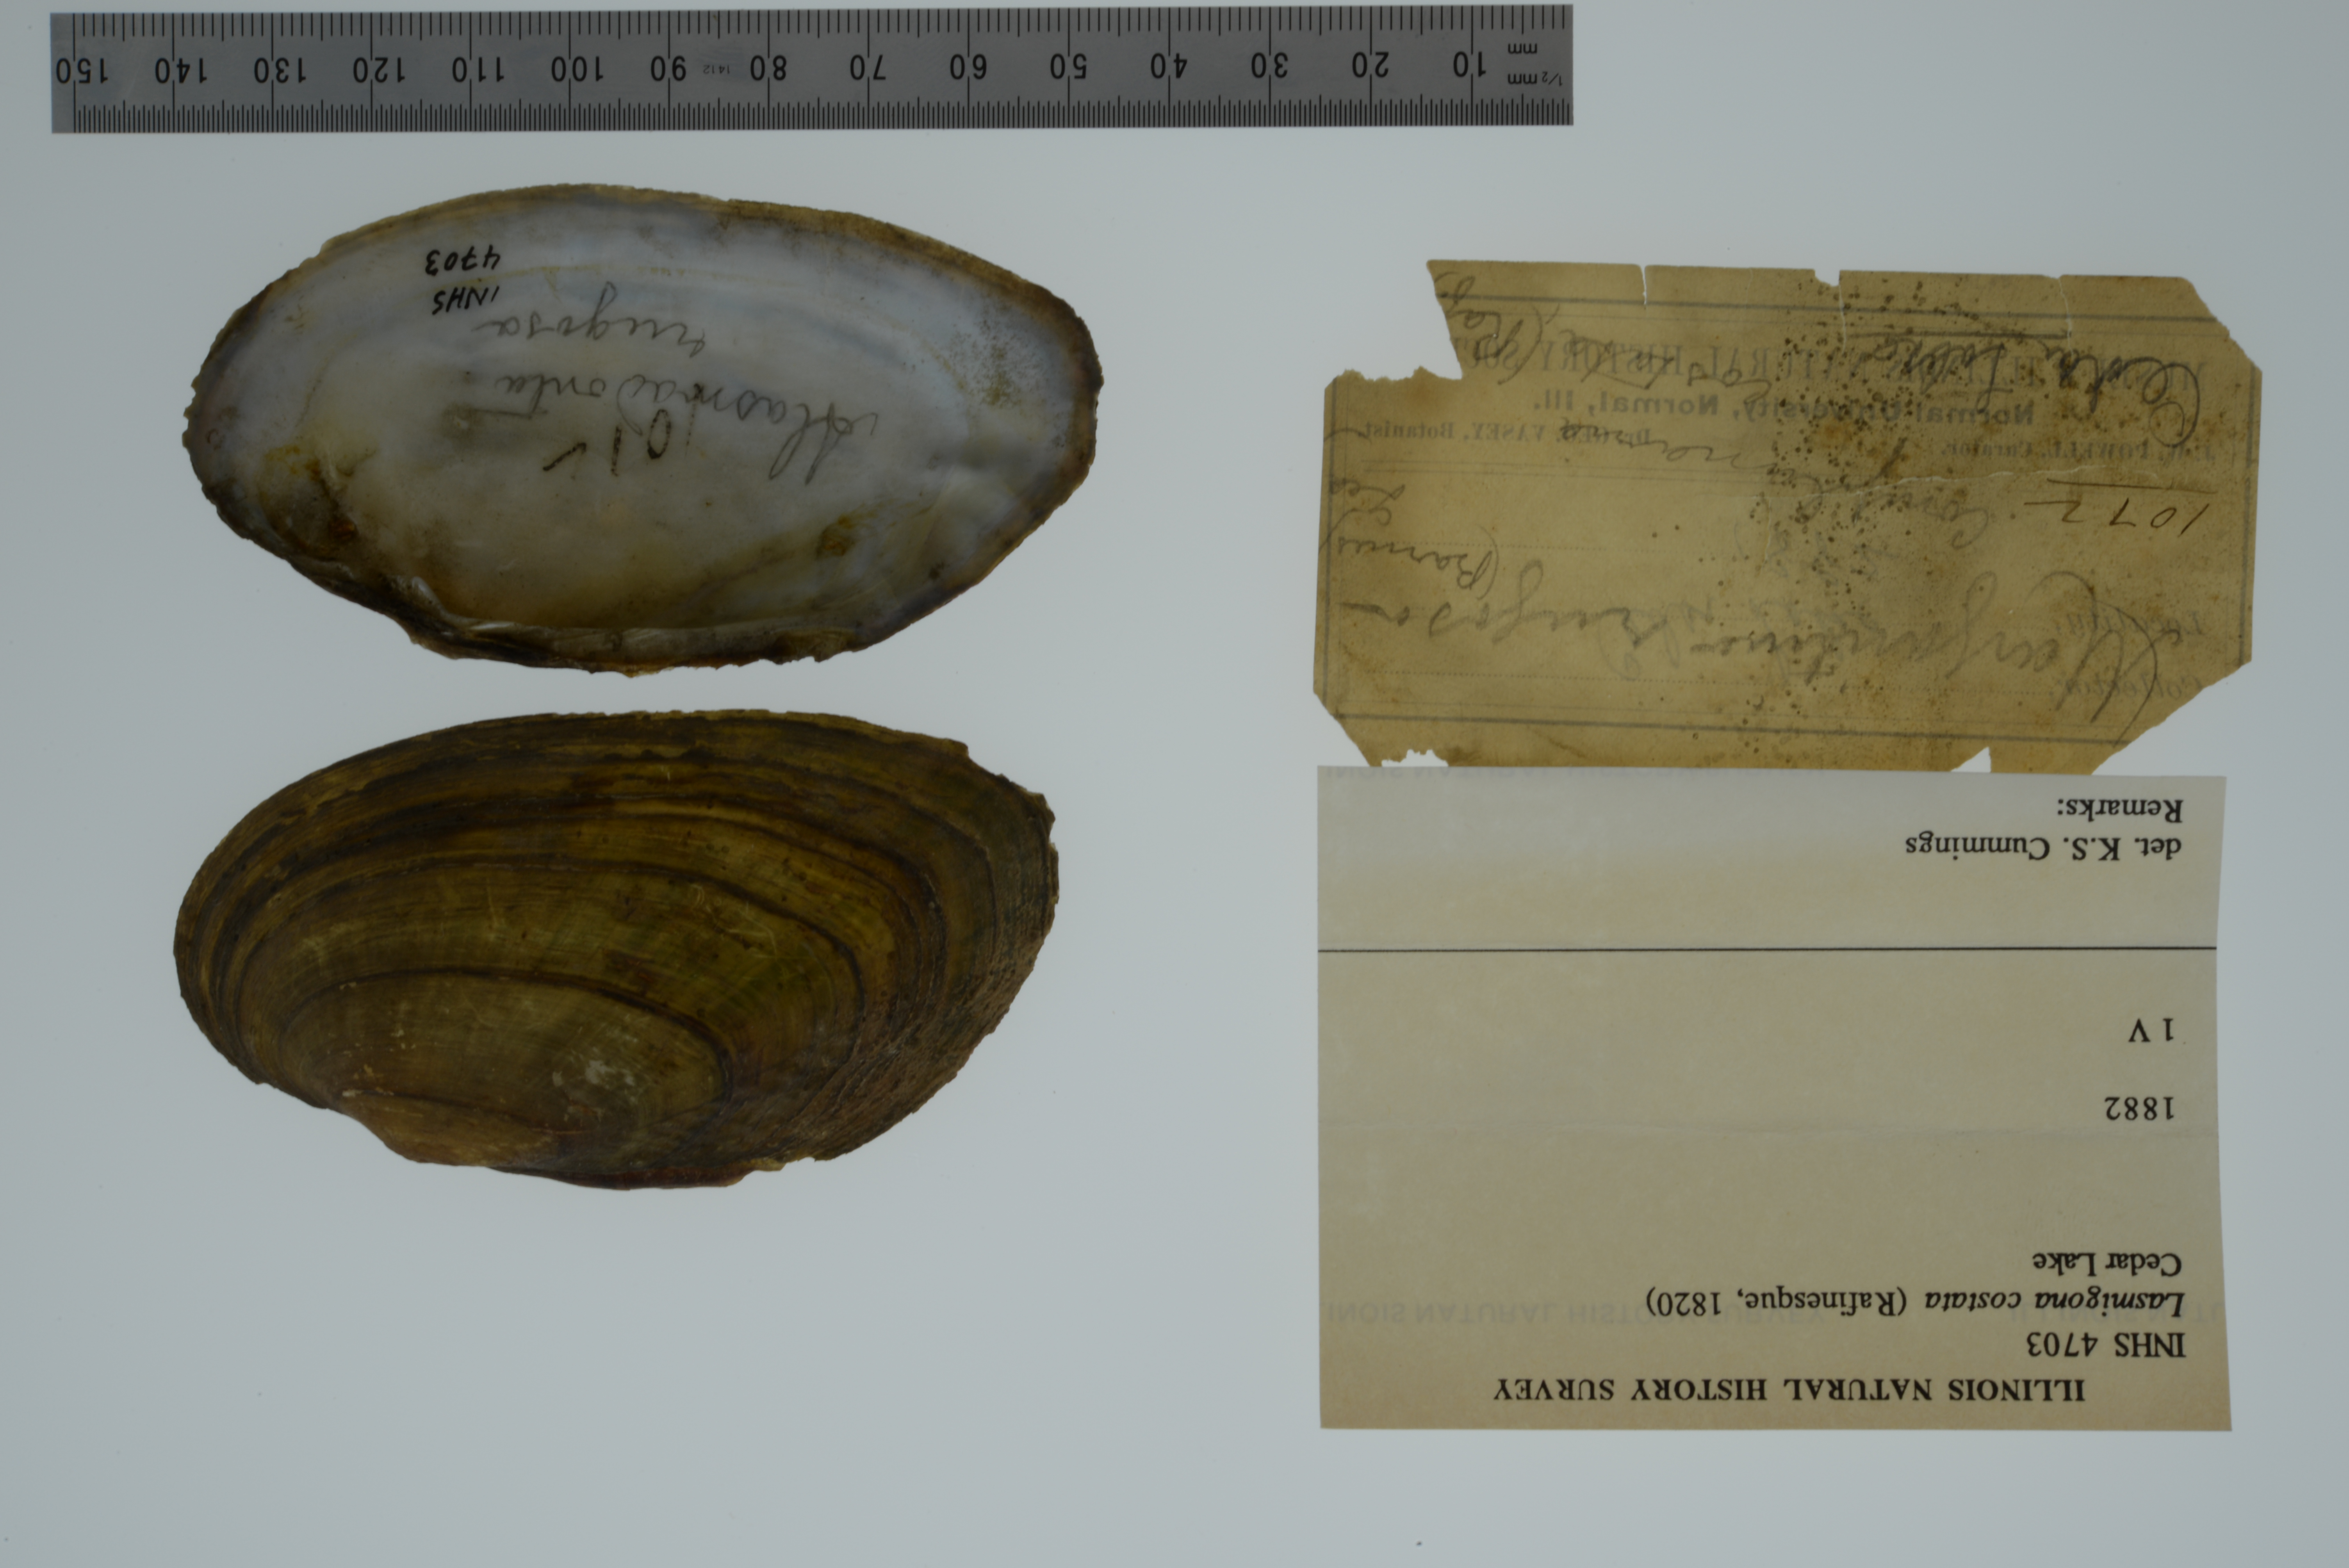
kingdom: Animalia
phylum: Mollusca
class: Bivalvia
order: Unionida
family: Unionidae
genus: Lasmigona
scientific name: Lasmigona costata
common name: Flutedshell
